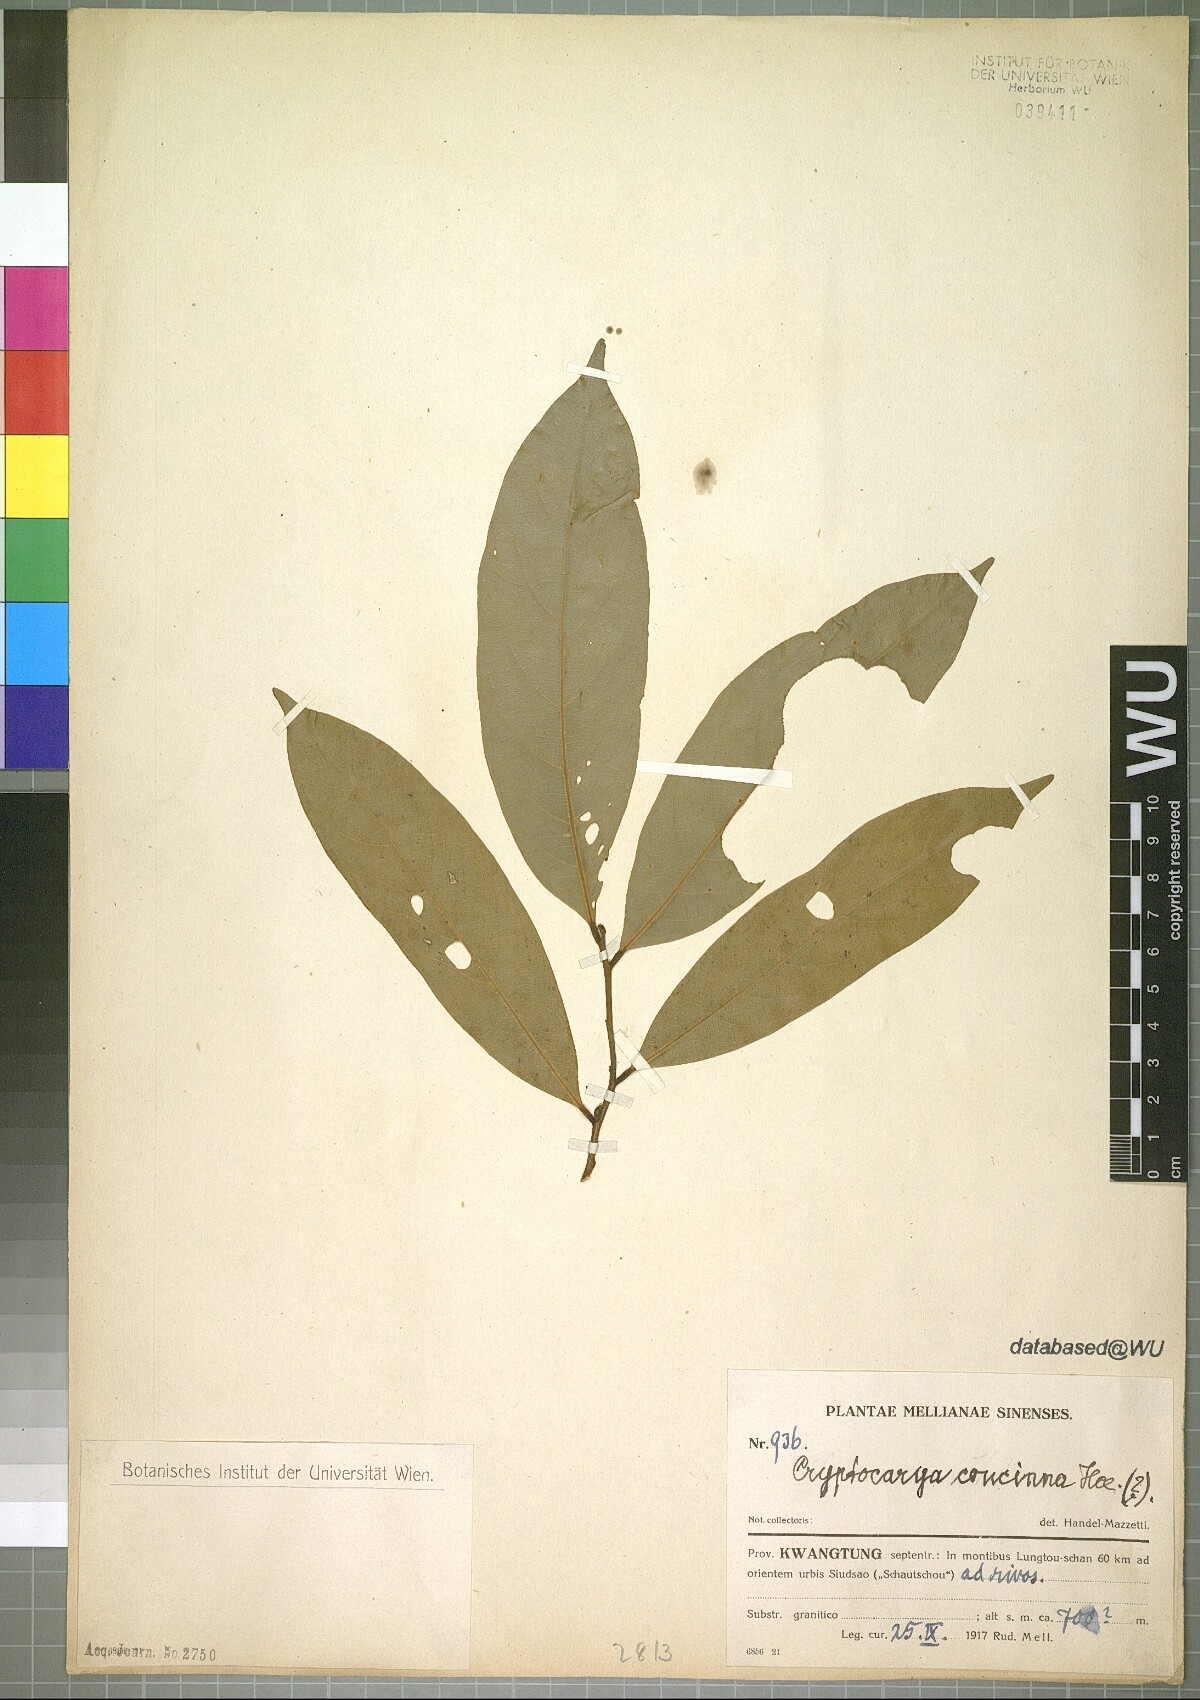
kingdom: Plantae
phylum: Tracheophyta
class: Magnoliopsida
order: Laurales
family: Lauraceae
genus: Cryptocarya
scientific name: Cryptocarya concinna
